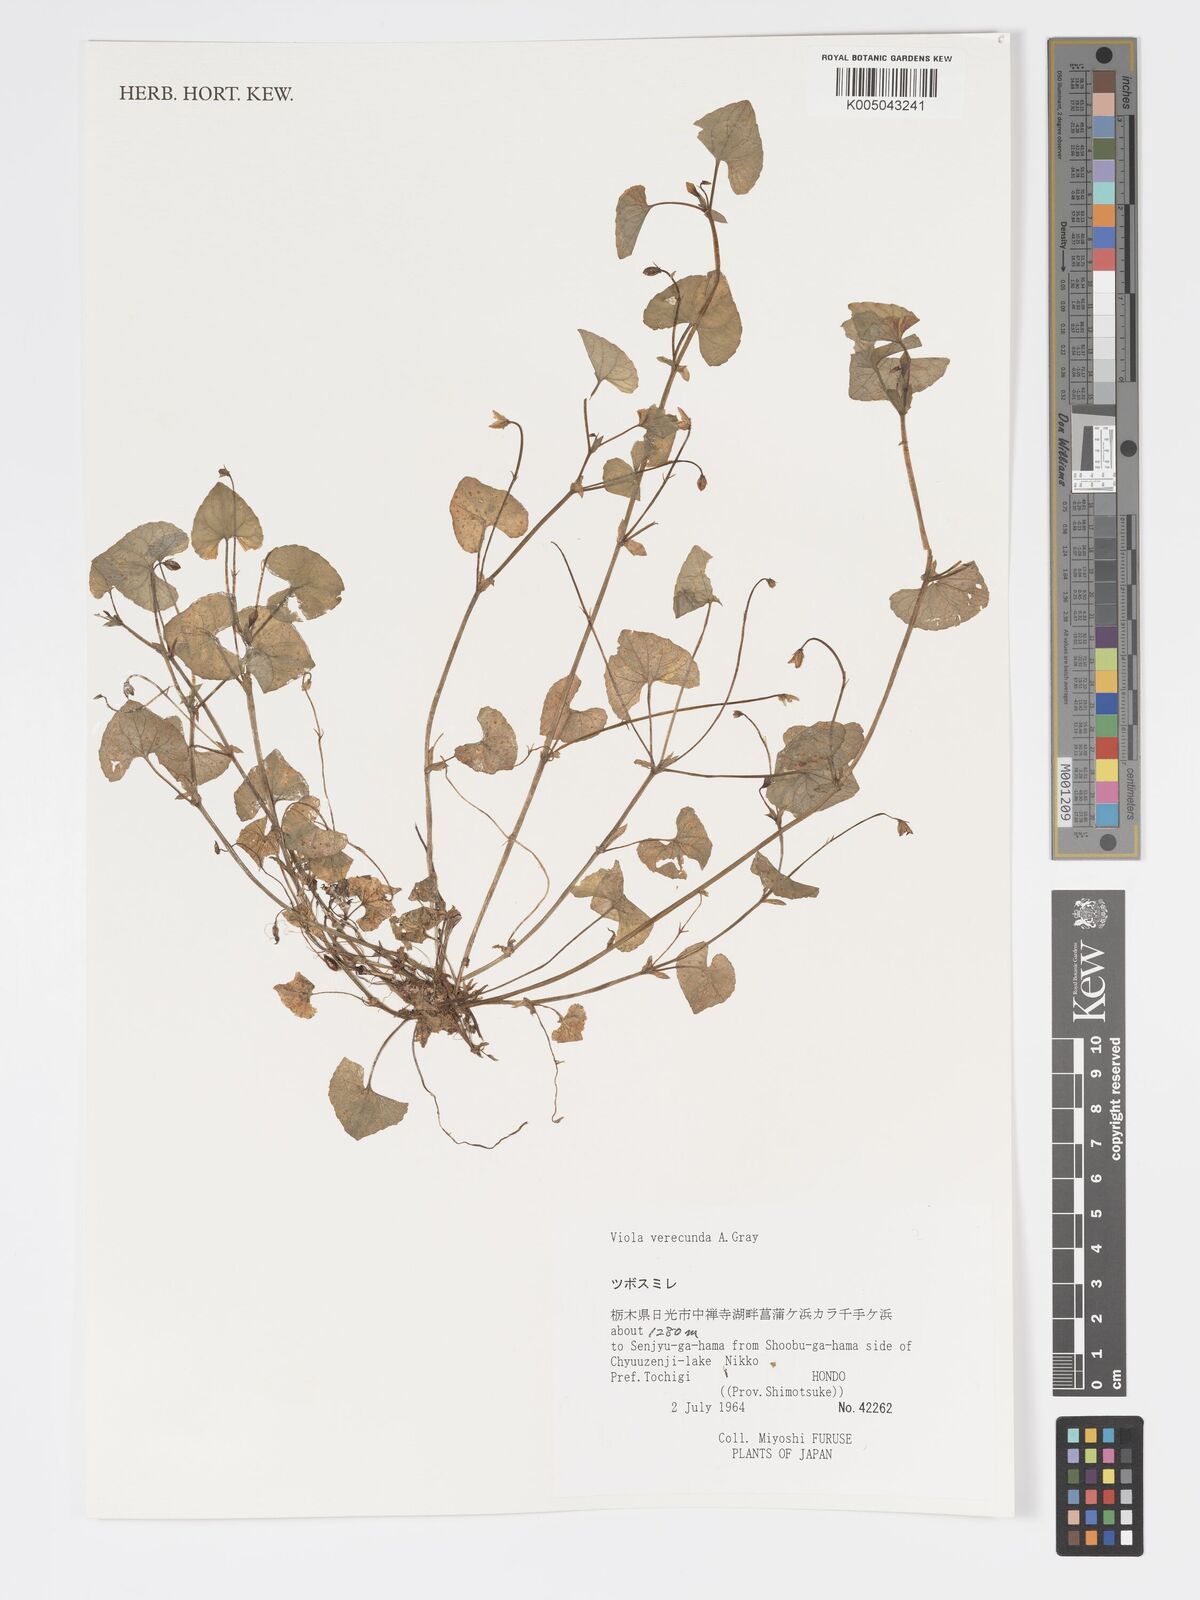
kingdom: Plantae
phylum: Tracheophyta
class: Magnoliopsida
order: Malpighiales
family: Violaceae
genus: Viola
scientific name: Viola hamiltoniana
